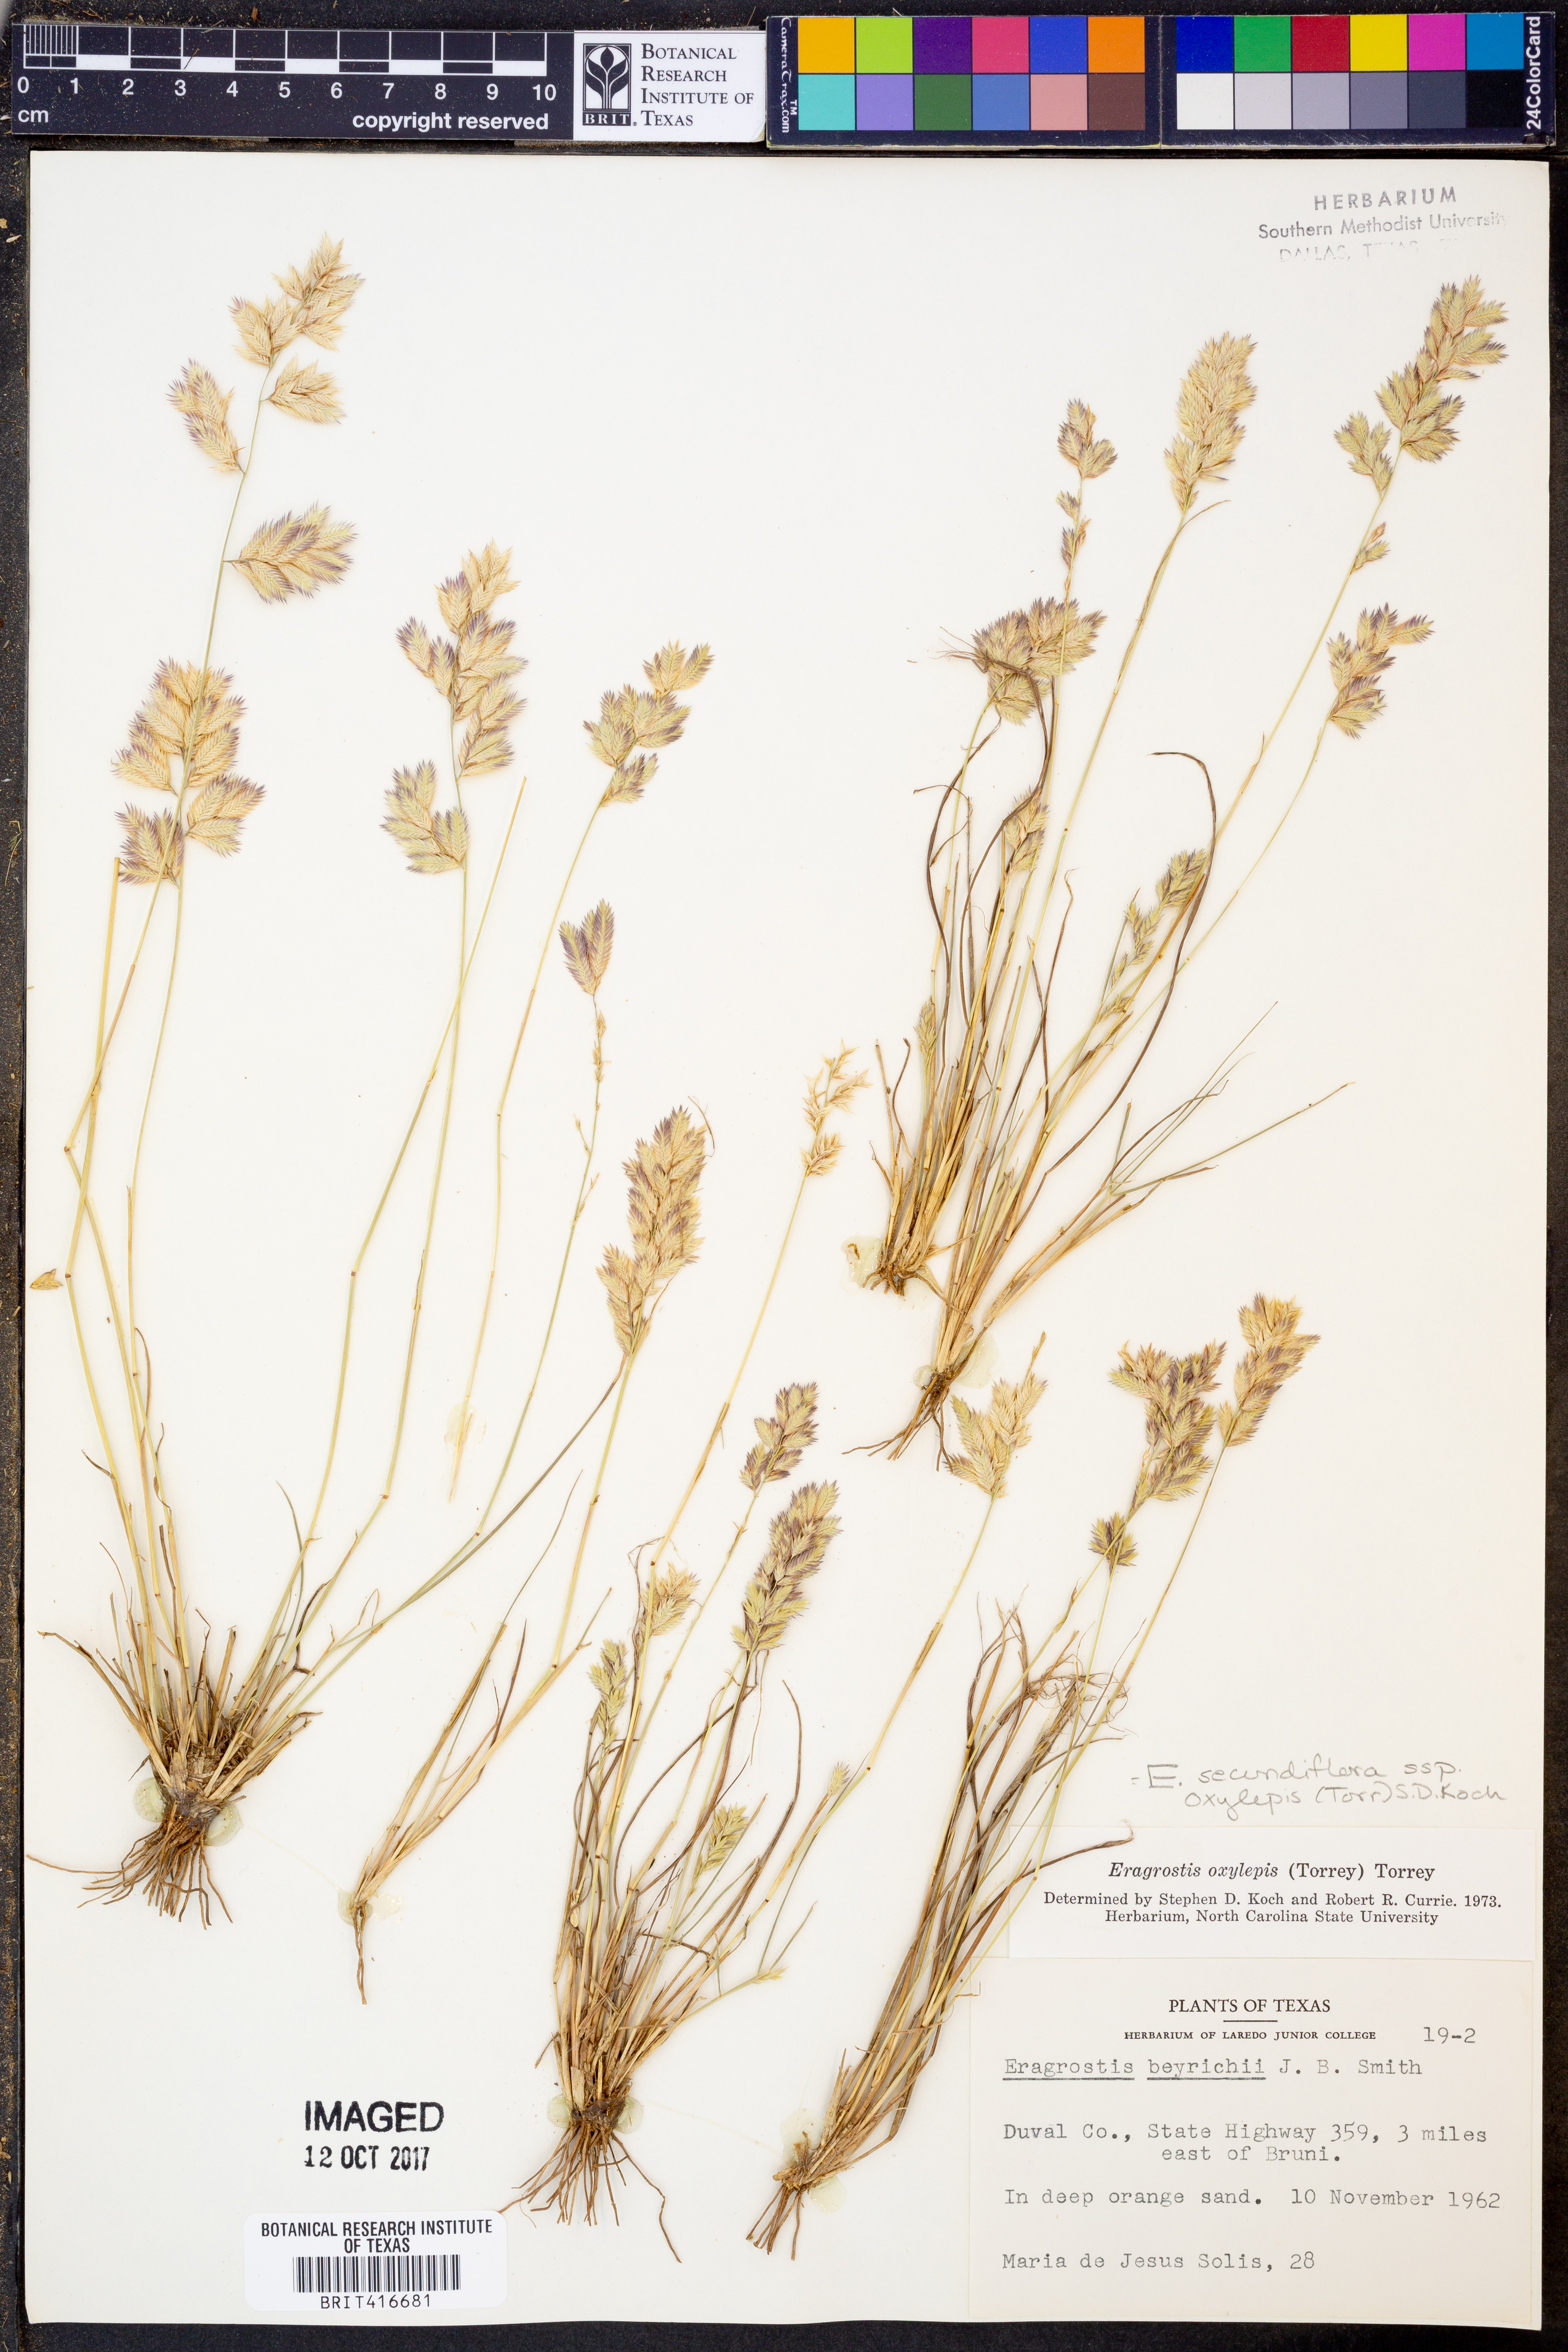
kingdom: Plantae
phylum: Tracheophyta
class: Liliopsida
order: Poales
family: Poaceae
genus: Eragrostis
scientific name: Eragrostis secundiflora
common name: Red love grass
